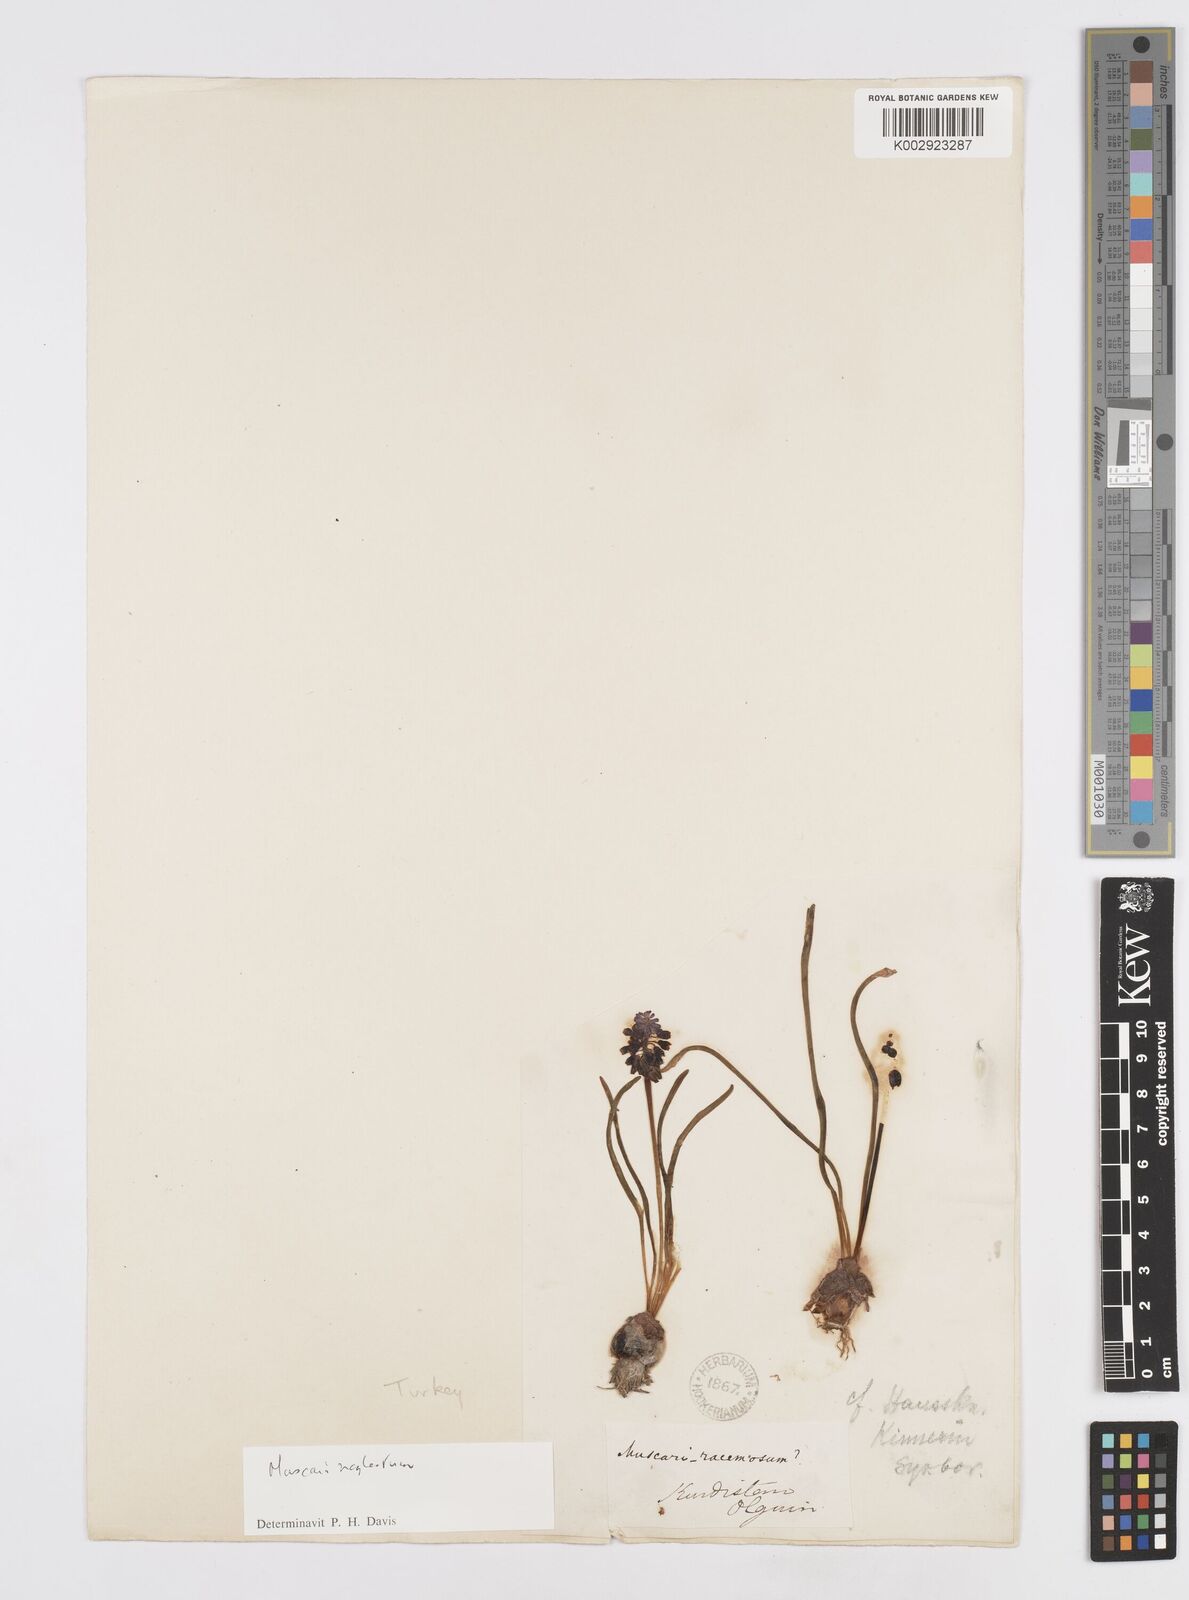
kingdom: Plantae
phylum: Tracheophyta
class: Liliopsida
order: Asparagales
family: Asparagaceae
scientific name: Asparagaceae
